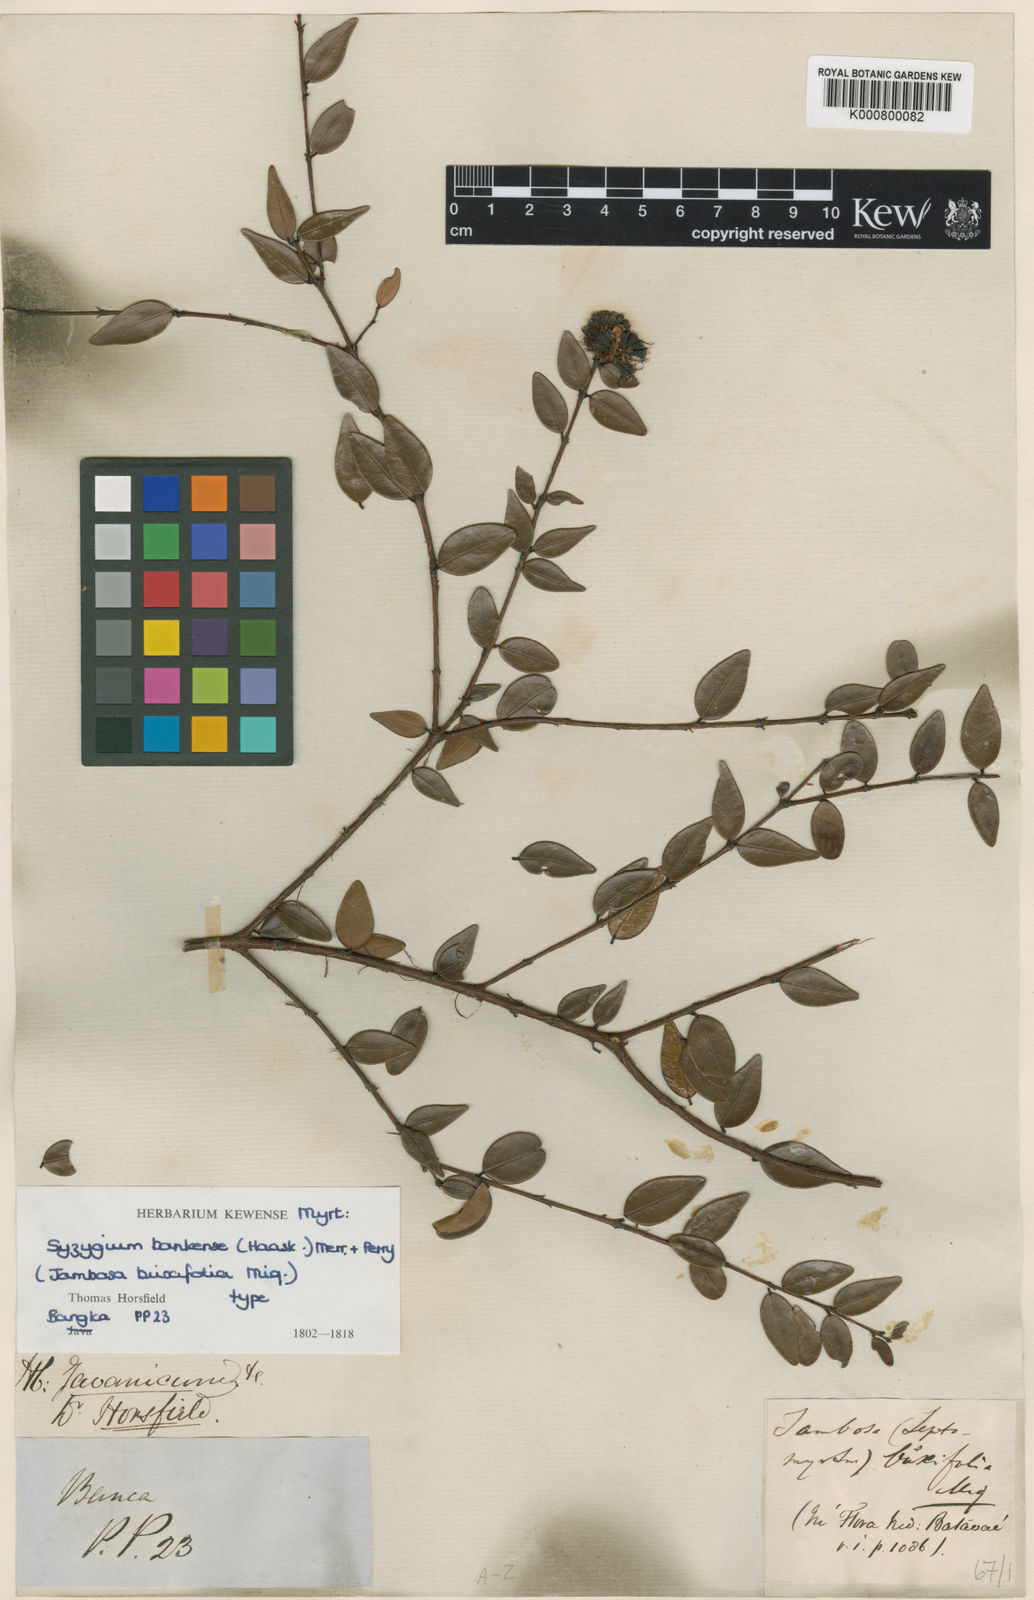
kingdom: Plantae
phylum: Tracheophyta
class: Magnoliopsida
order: Myrtales
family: Myrtaceae
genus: Syzygium
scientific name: Syzygium bankense
